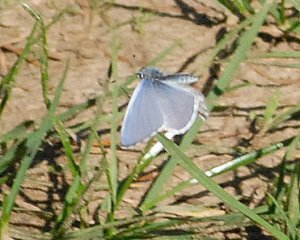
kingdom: Animalia
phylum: Arthropoda
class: Insecta
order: Lepidoptera
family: Lycaenidae
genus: Celastrina
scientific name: Celastrina
